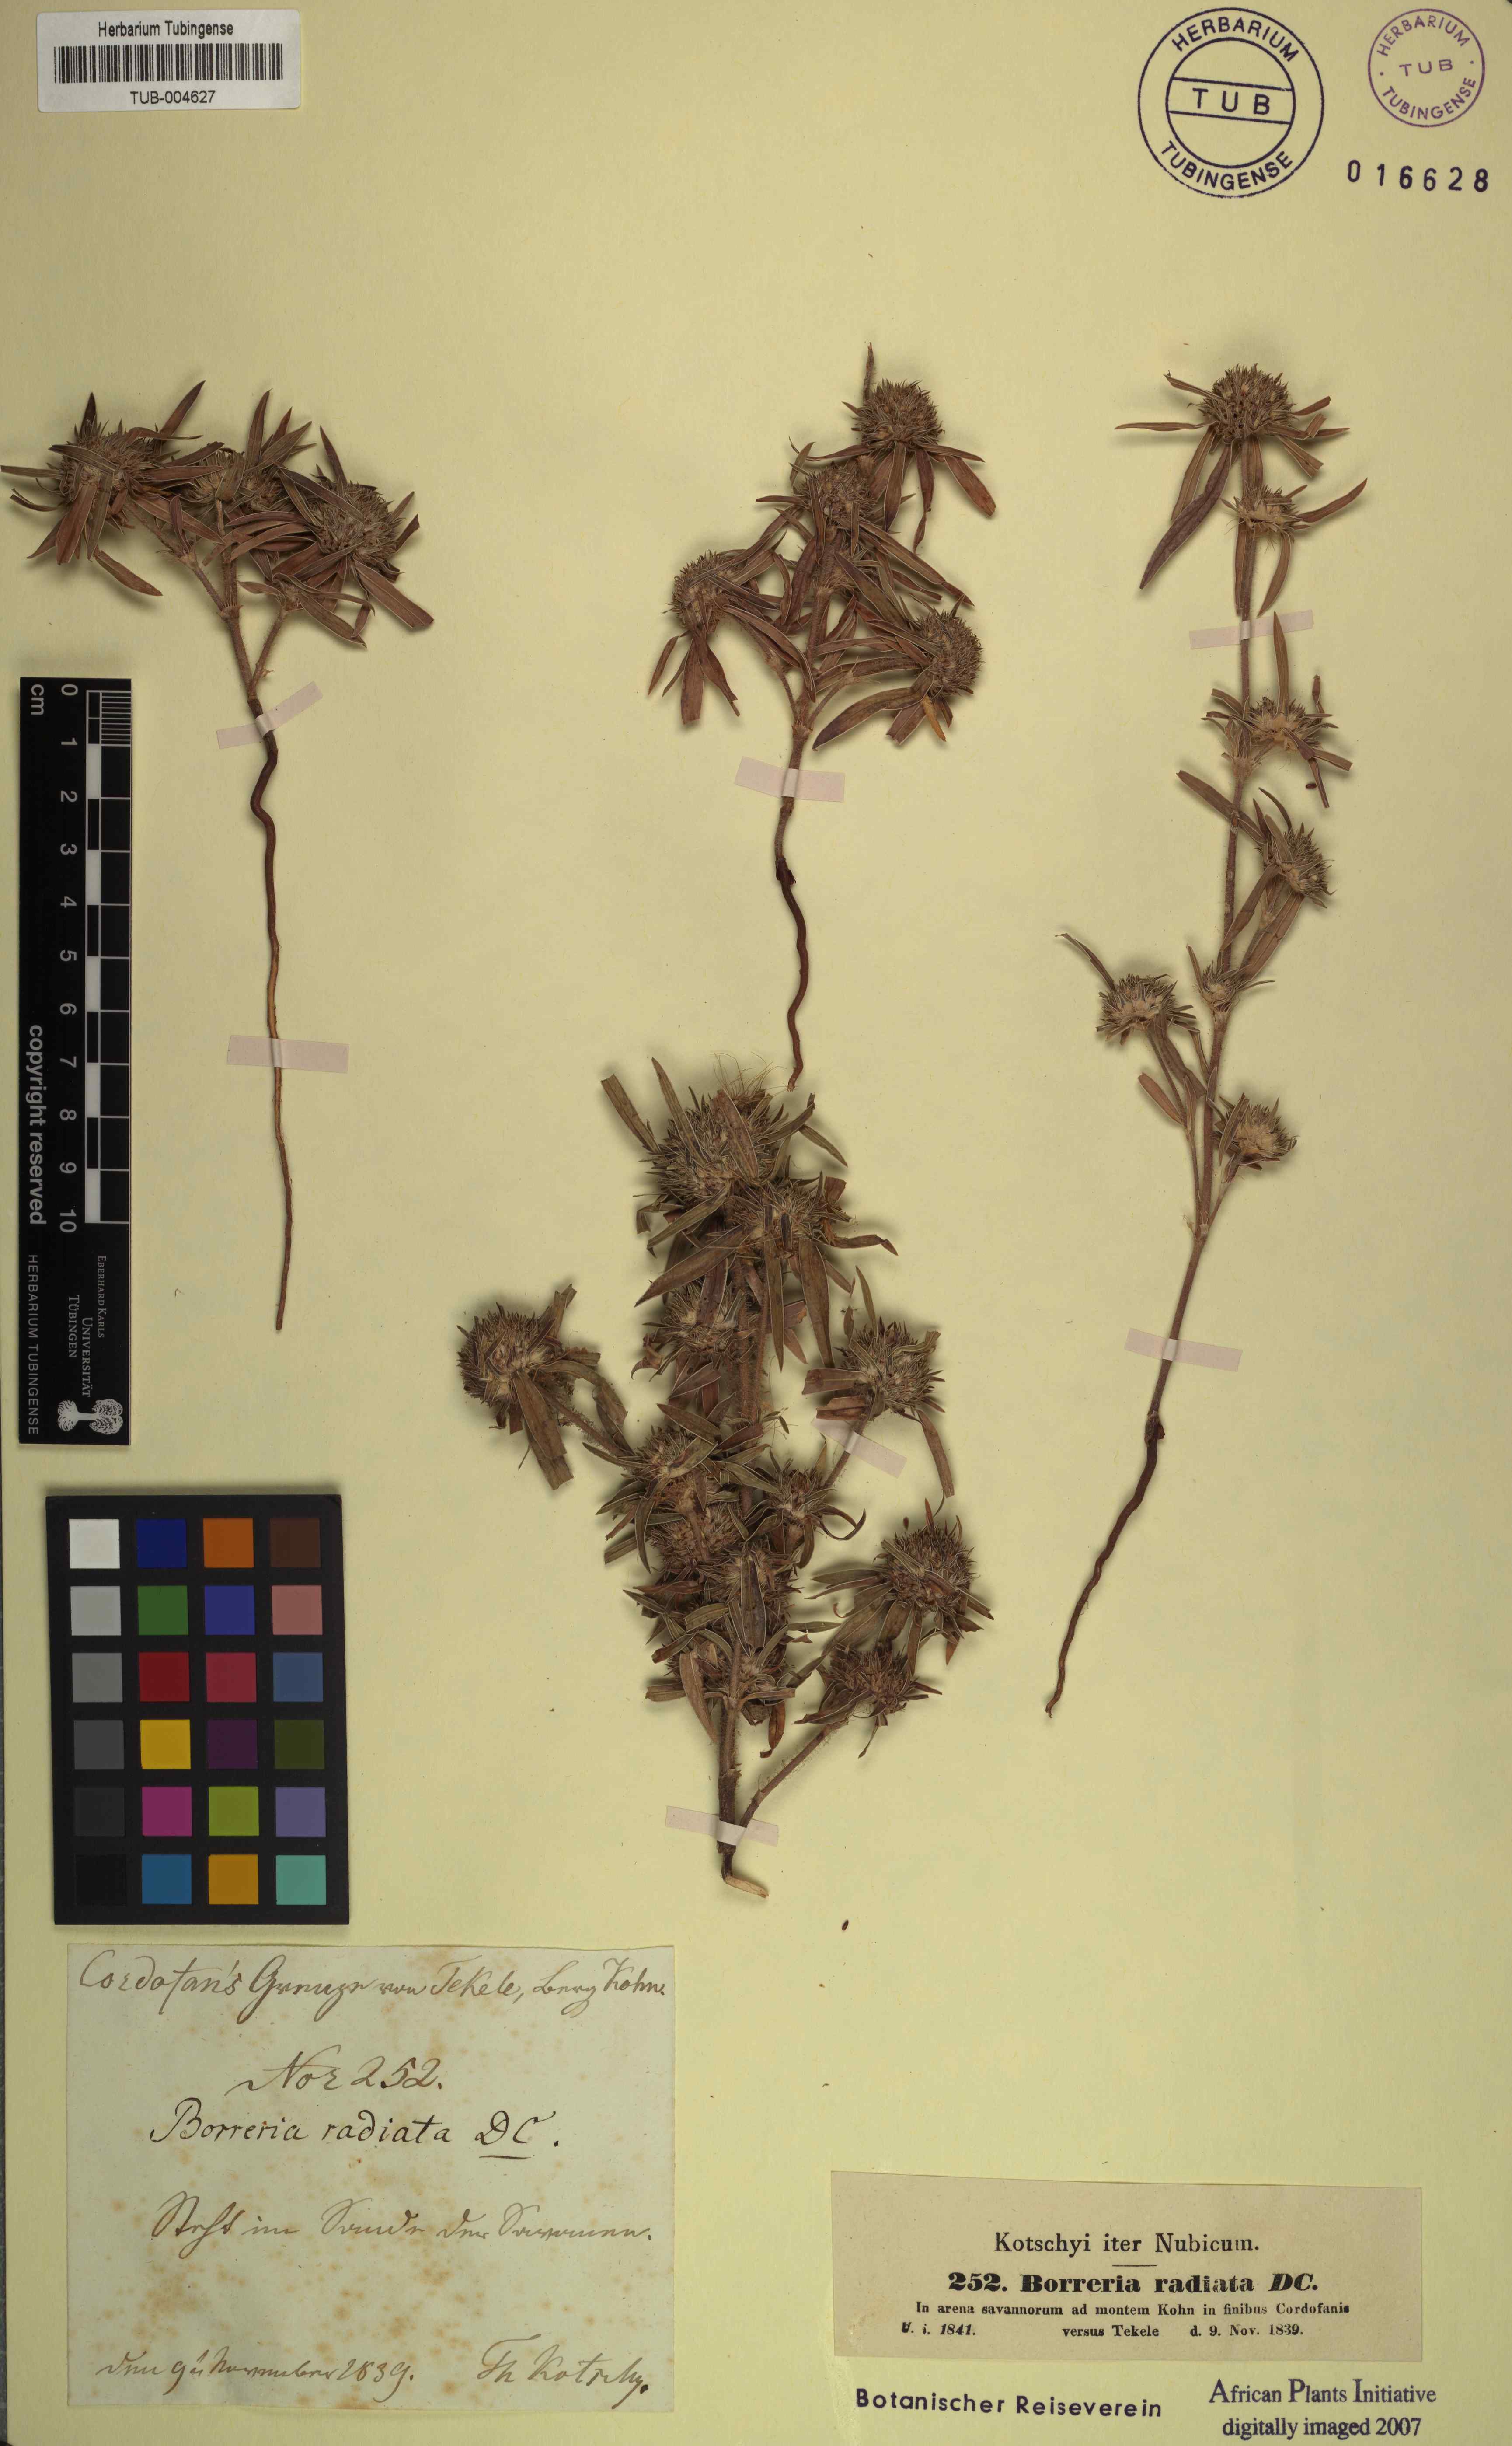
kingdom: Plantae
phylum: Tracheophyta
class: Magnoliopsida
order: Gentianales
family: Rubiaceae
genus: Spermacoce
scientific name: Spermacoce radiata
